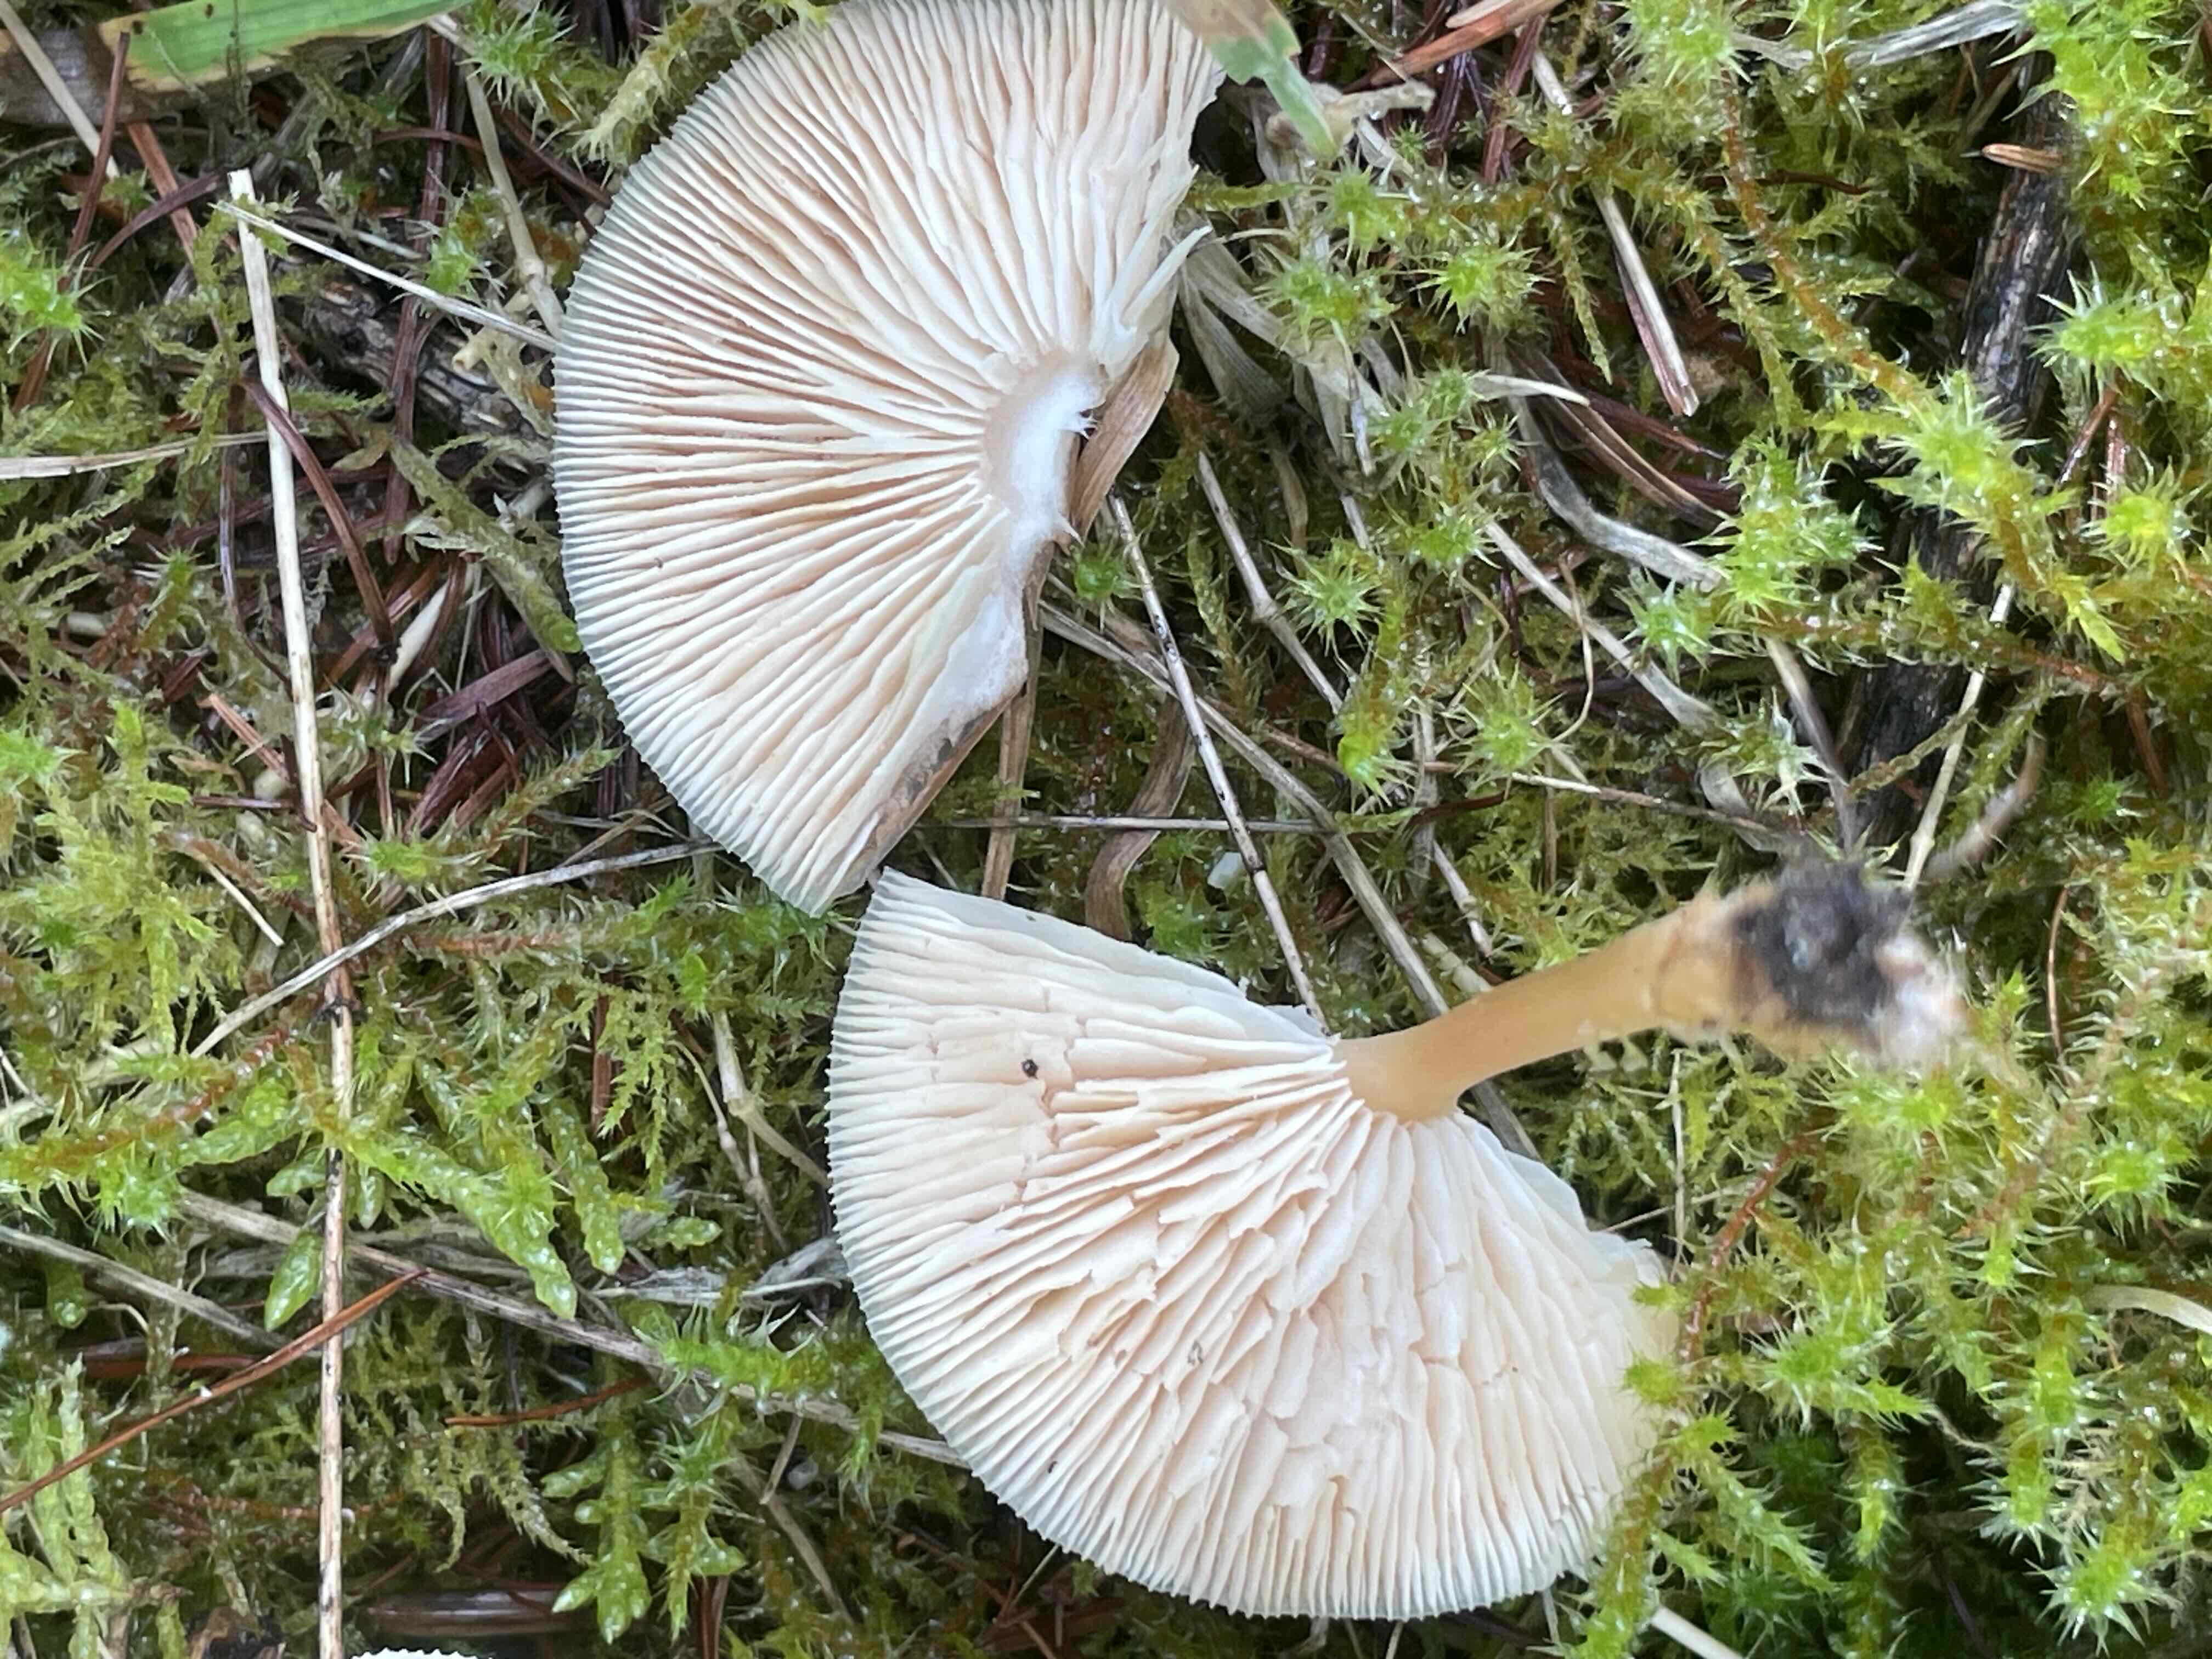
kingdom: Fungi
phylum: Basidiomycota
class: Agaricomycetes
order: Agaricales
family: Omphalotaceae
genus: Gymnopus
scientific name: Gymnopus
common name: fladhat
